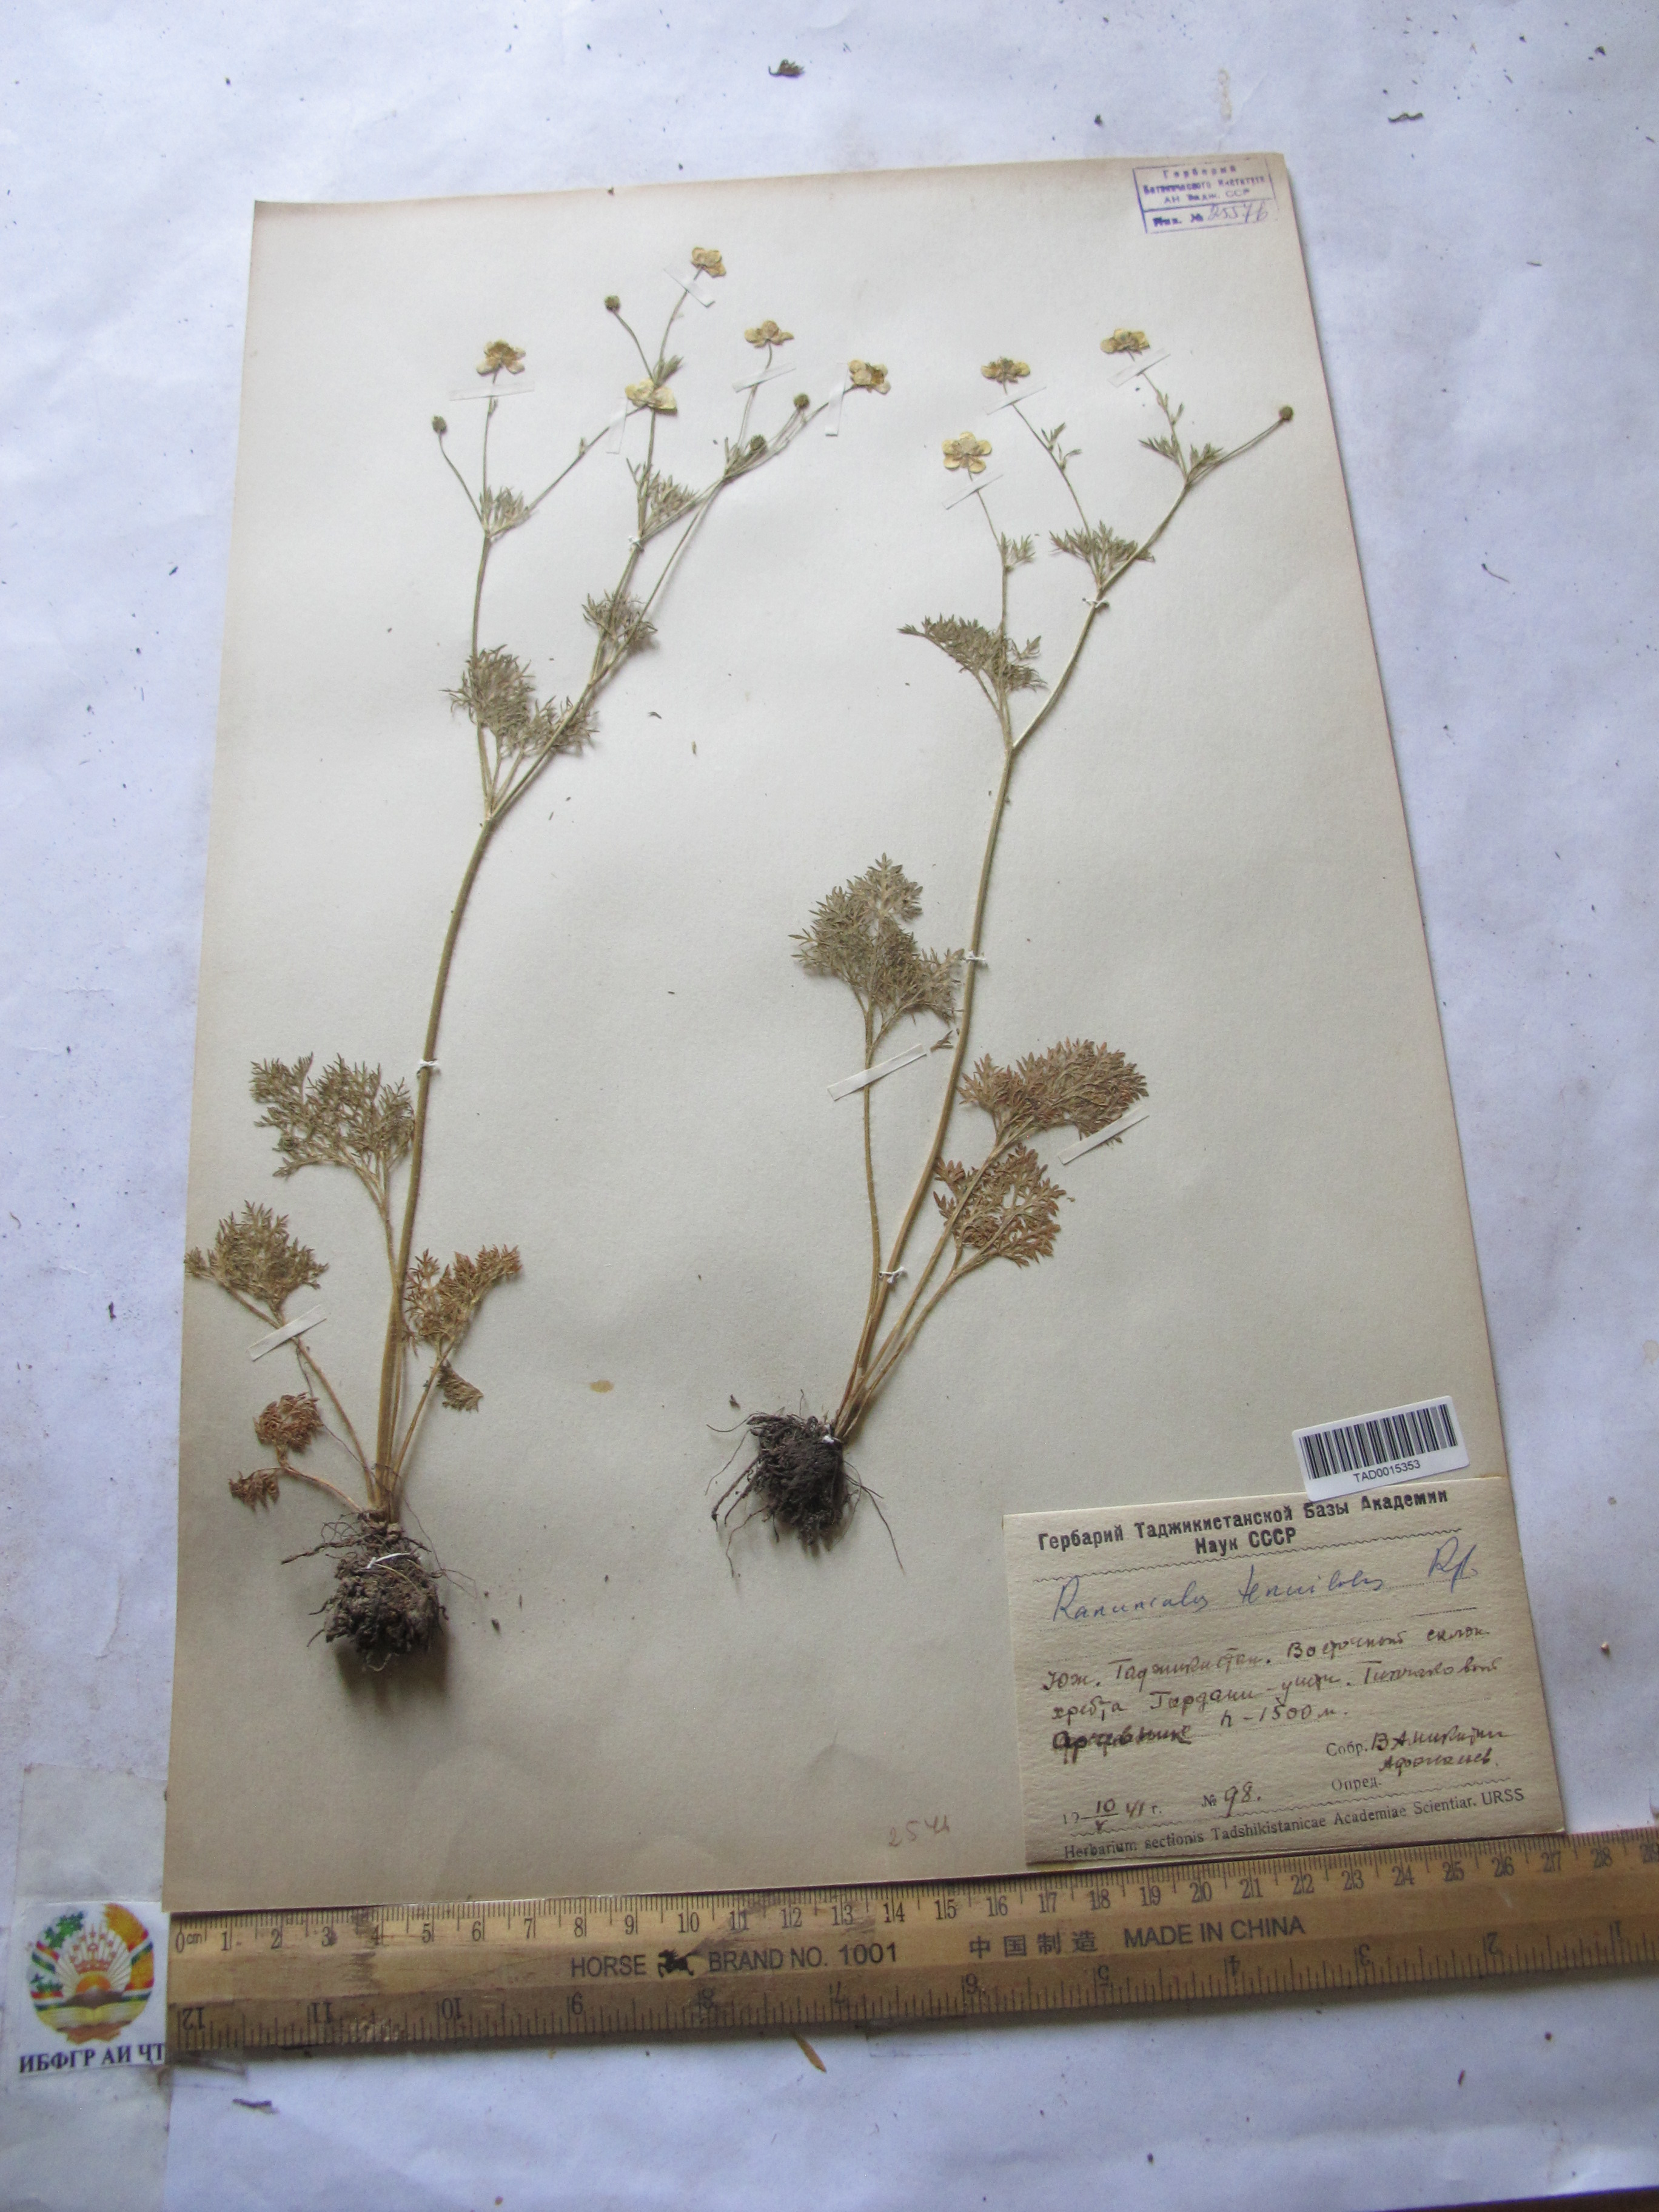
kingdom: Plantae
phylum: Tracheophyta
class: Magnoliopsida
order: Ranunculales
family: Ranunculaceae
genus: Ranunculus
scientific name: Ranunculus tenuilobus
